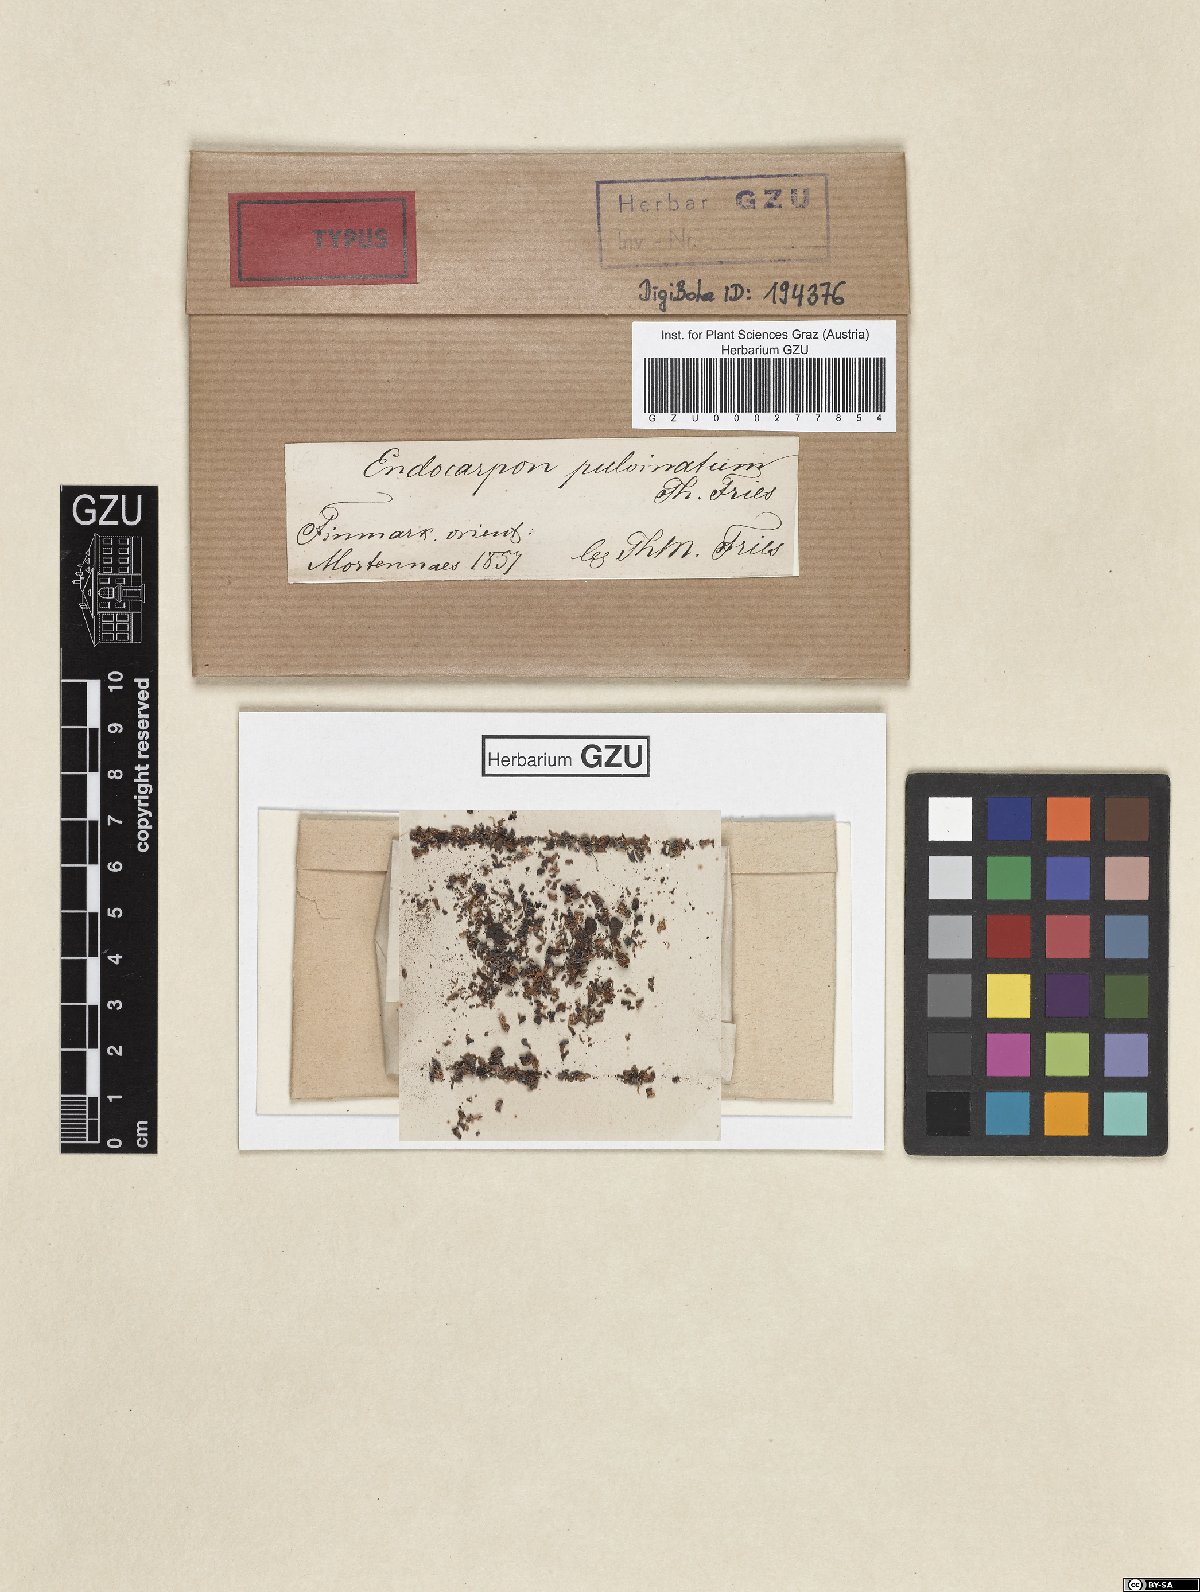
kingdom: Fungi
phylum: Ascomycota
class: Eurotiomycetes
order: Verrucariales
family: Verrucariaceae
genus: Staurothele
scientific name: Staurothele pulvinata
